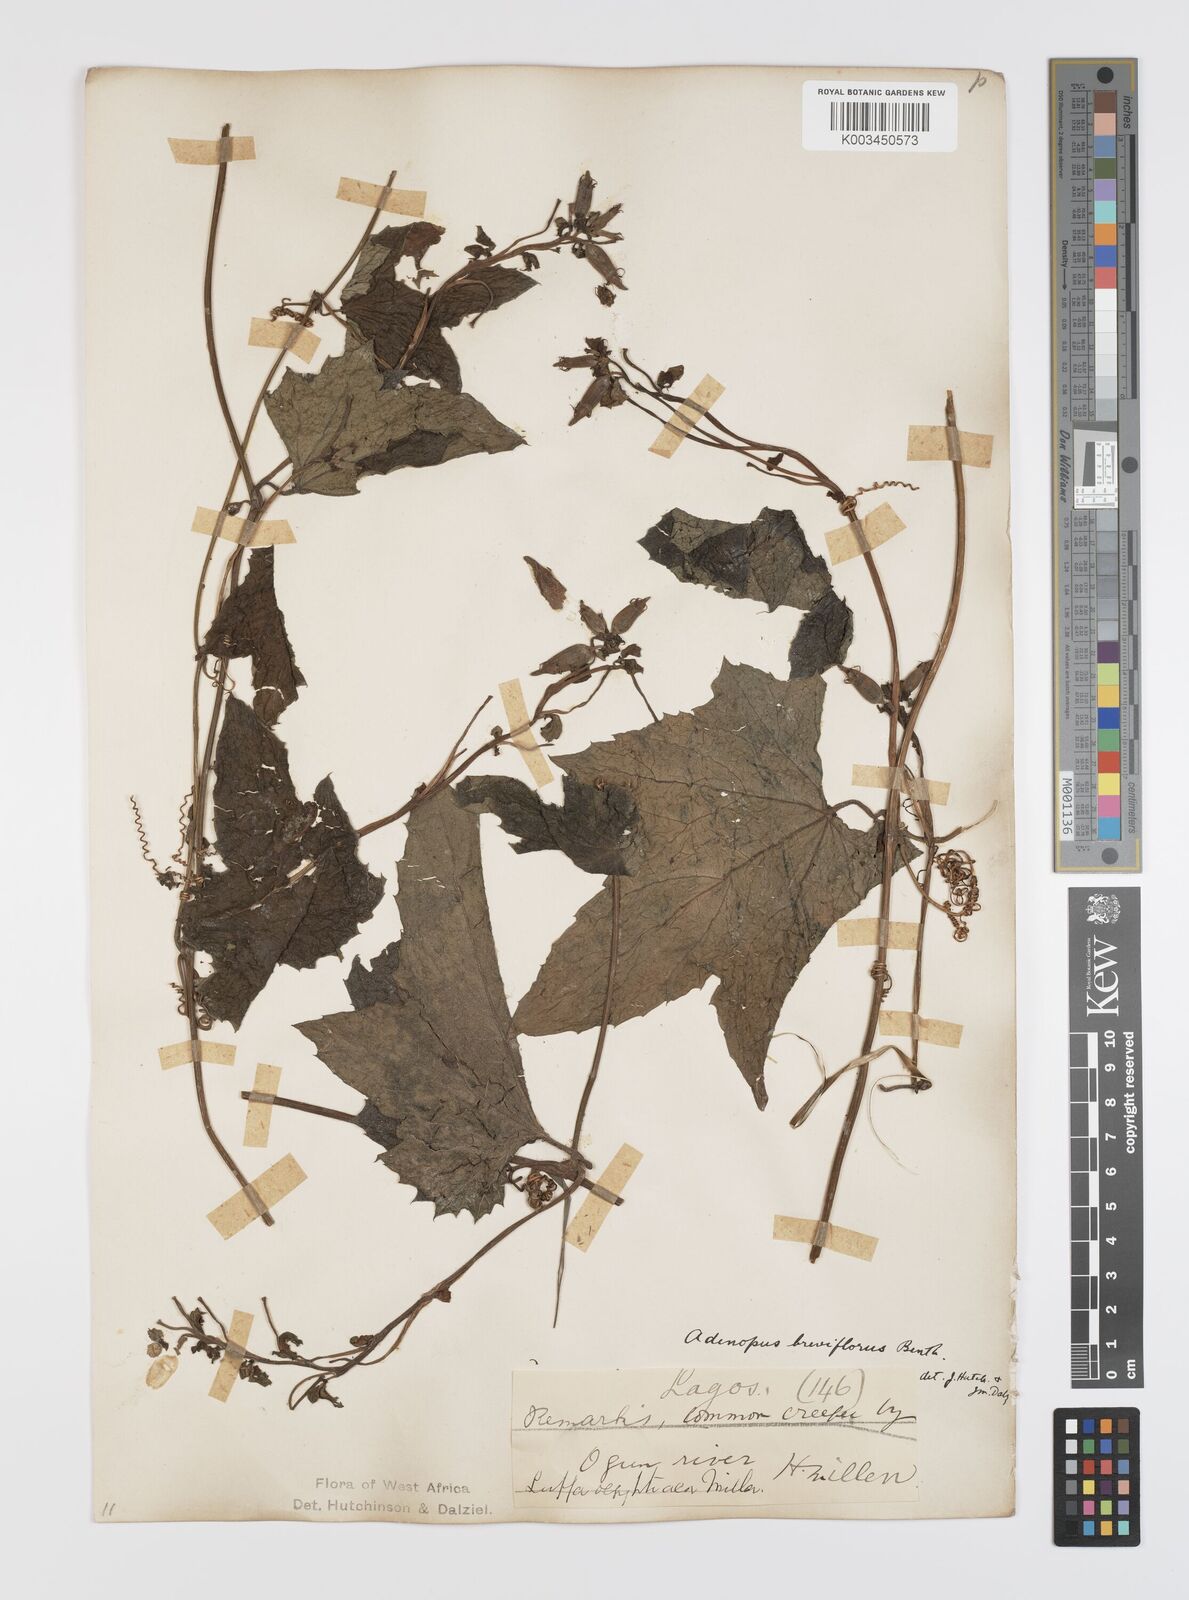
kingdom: Plantae
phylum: Tracheophyta
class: Magnoliopsida
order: Cucurbitales
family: Cucurbitaceae
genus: Lagenaria
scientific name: Lagenaria breviflora
